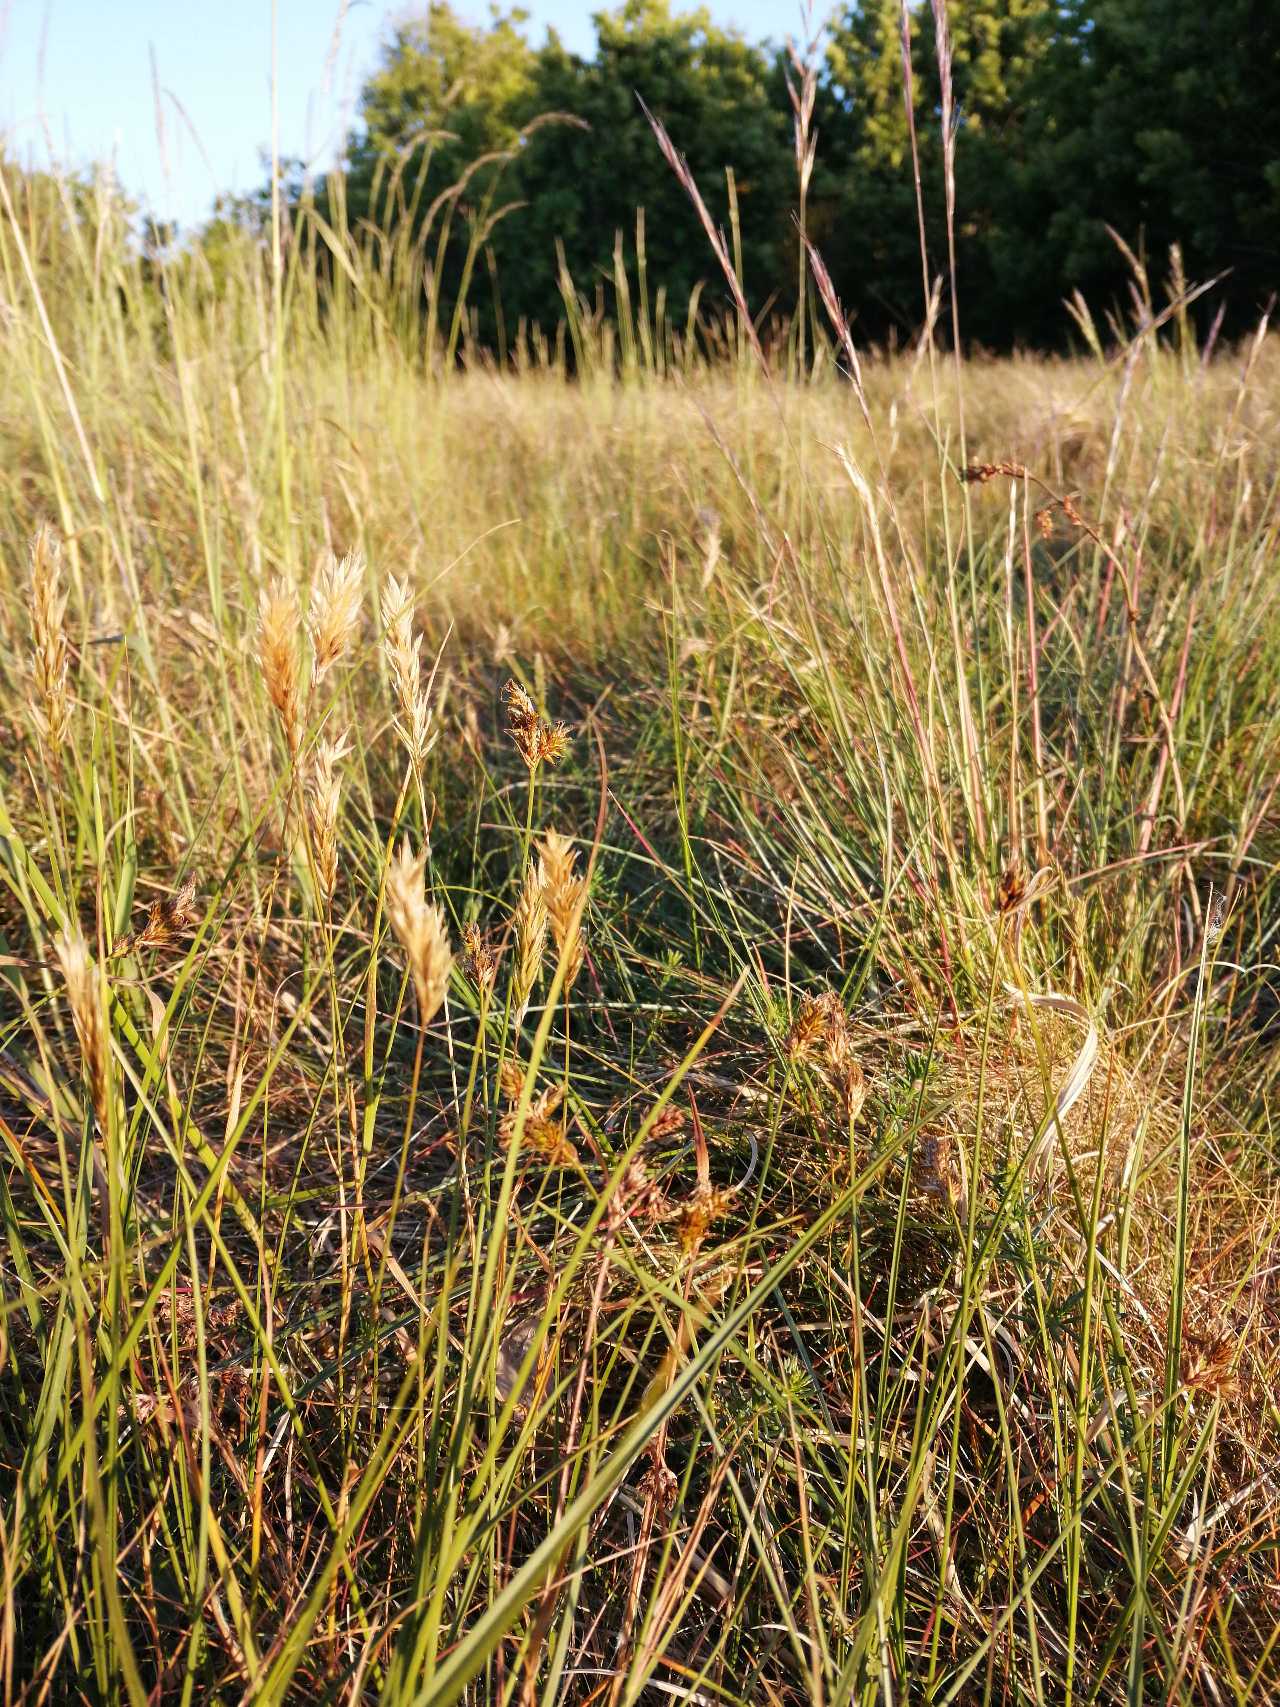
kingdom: Plantae
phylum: Tracheophyta
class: Liliopsida
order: Poales
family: Poaceae
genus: Anthoxanthum
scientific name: Anthoxanthum odoratum
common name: Vellugtende gulaks
